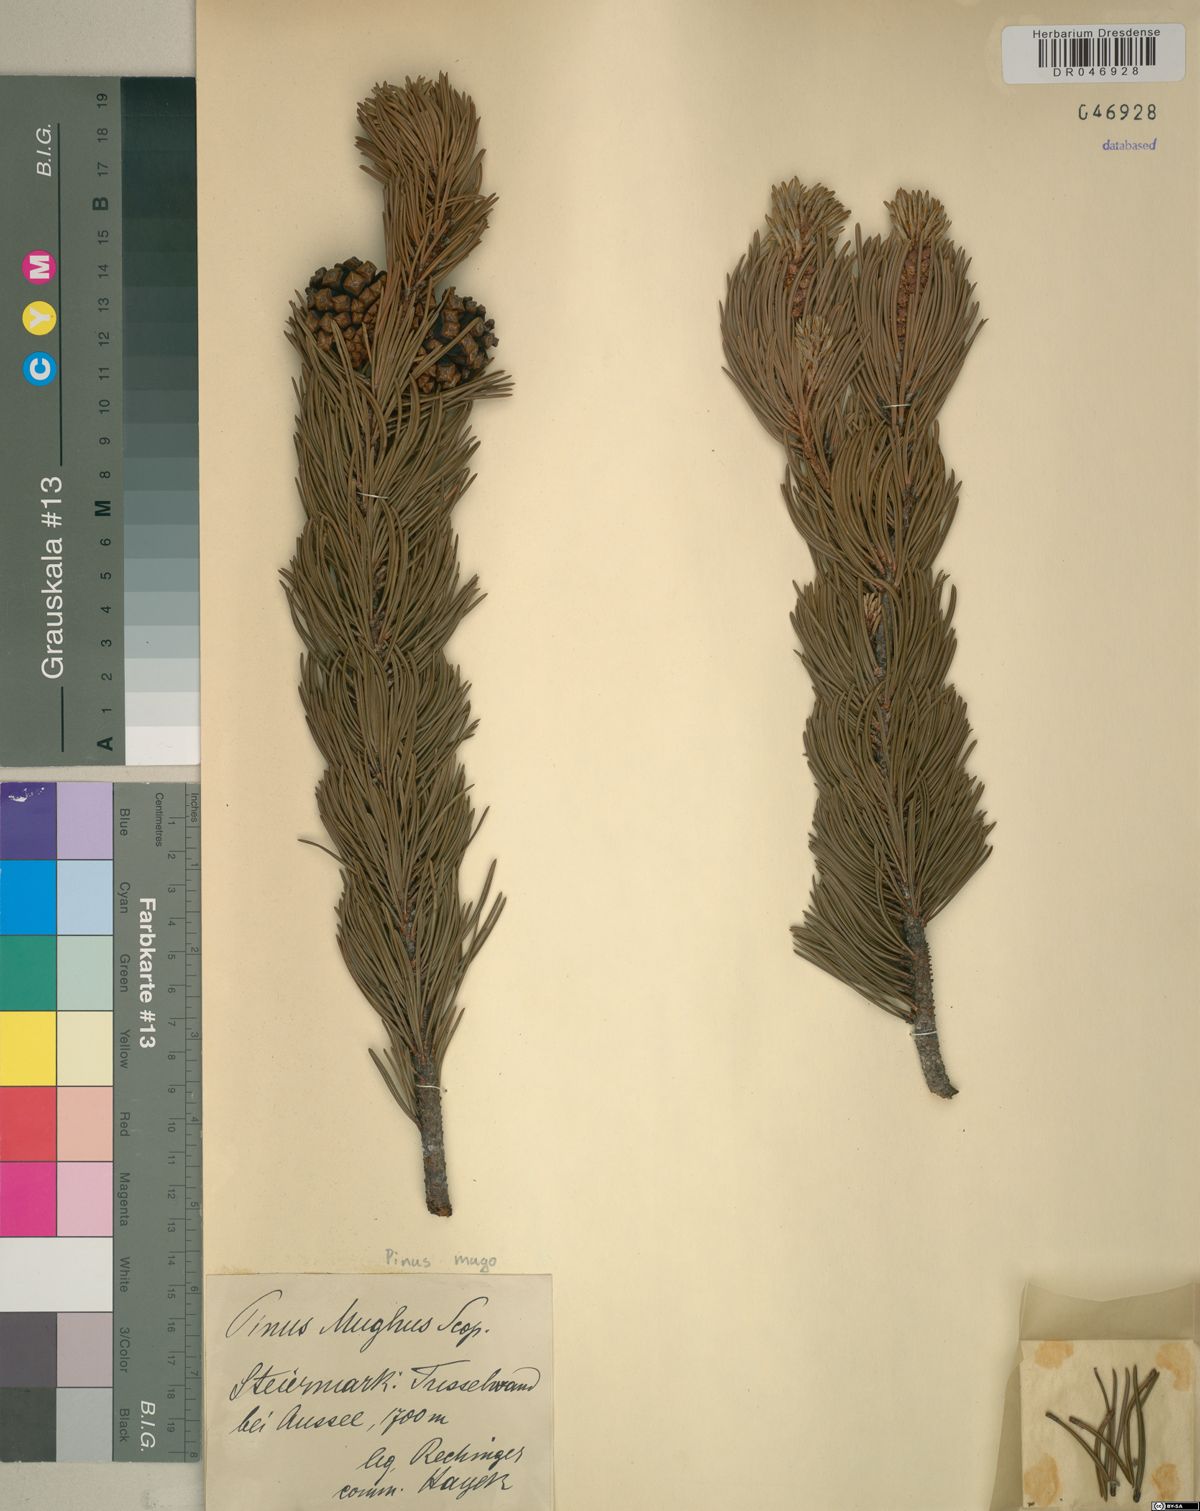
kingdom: Plantae
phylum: Tracheophyta
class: Pinopsida
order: Pinales
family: Pinaceae
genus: Pinus
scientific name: Pinus mugo
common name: Mugo pine
